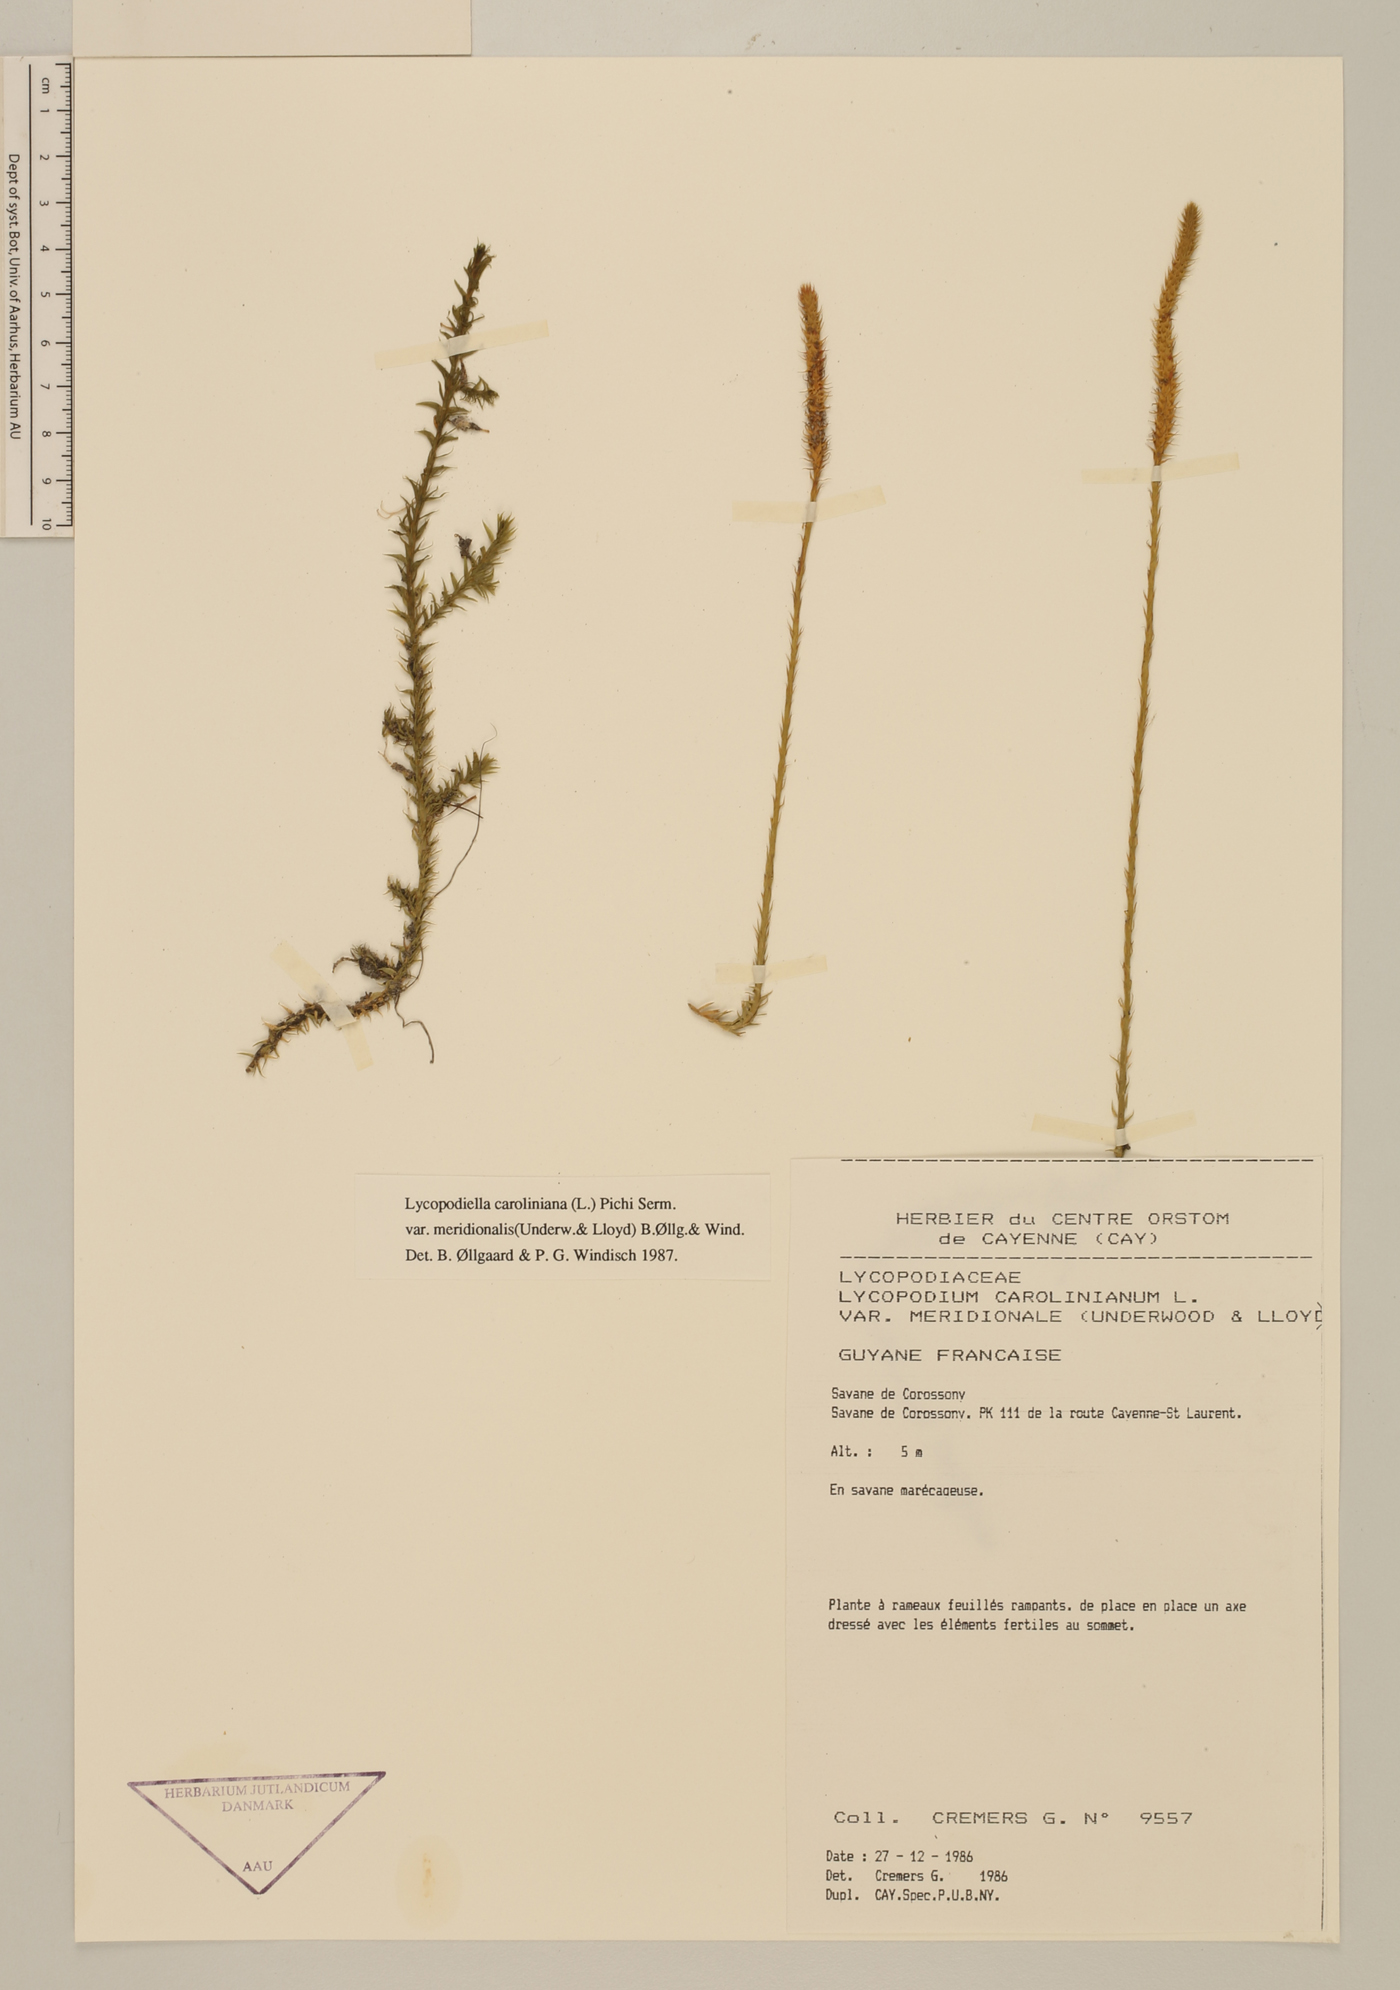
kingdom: Plantae
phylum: Tracheophyta
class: Lycopodiopsida
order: Lycopodiales
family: Lycopodiaceae
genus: Pseudolycopodiella
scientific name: Pseudolycopodiella meridionalis
